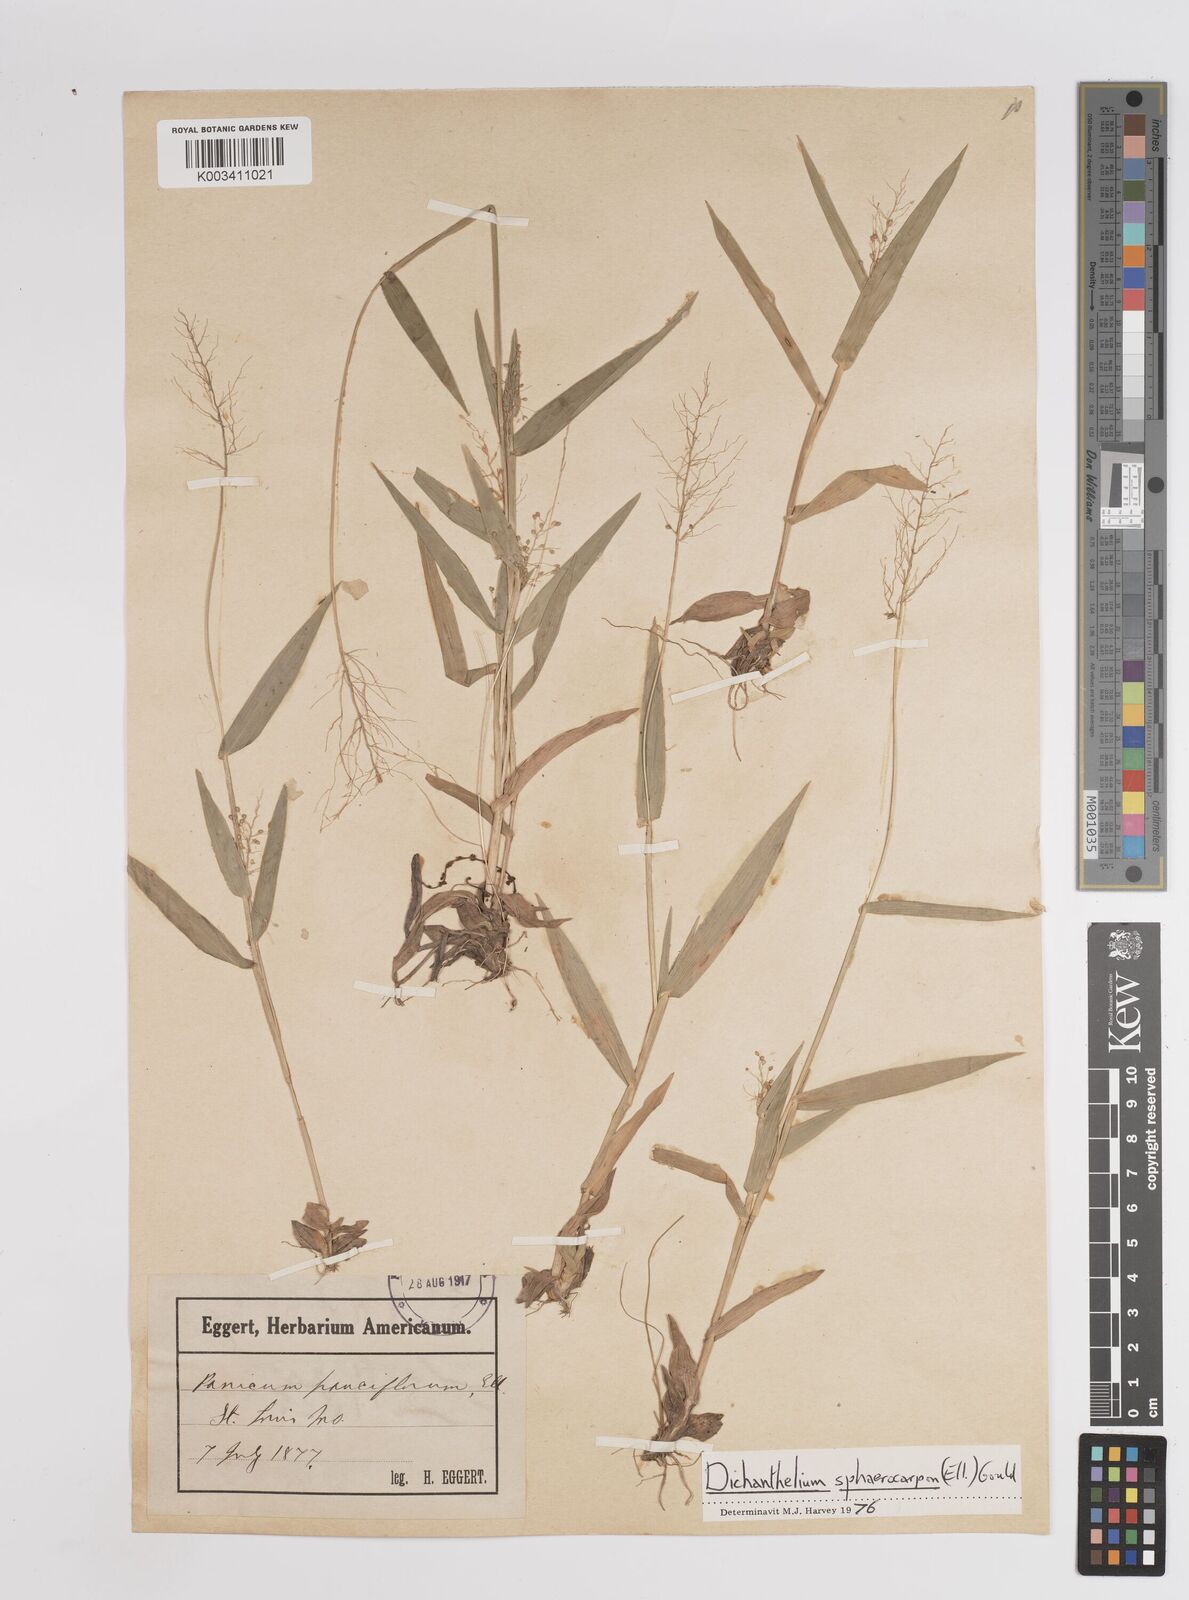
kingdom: Plantae
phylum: Tracheophyta
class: Liliopsida
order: Poales
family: Poaceae
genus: Setaria
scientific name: Setaria tenax
